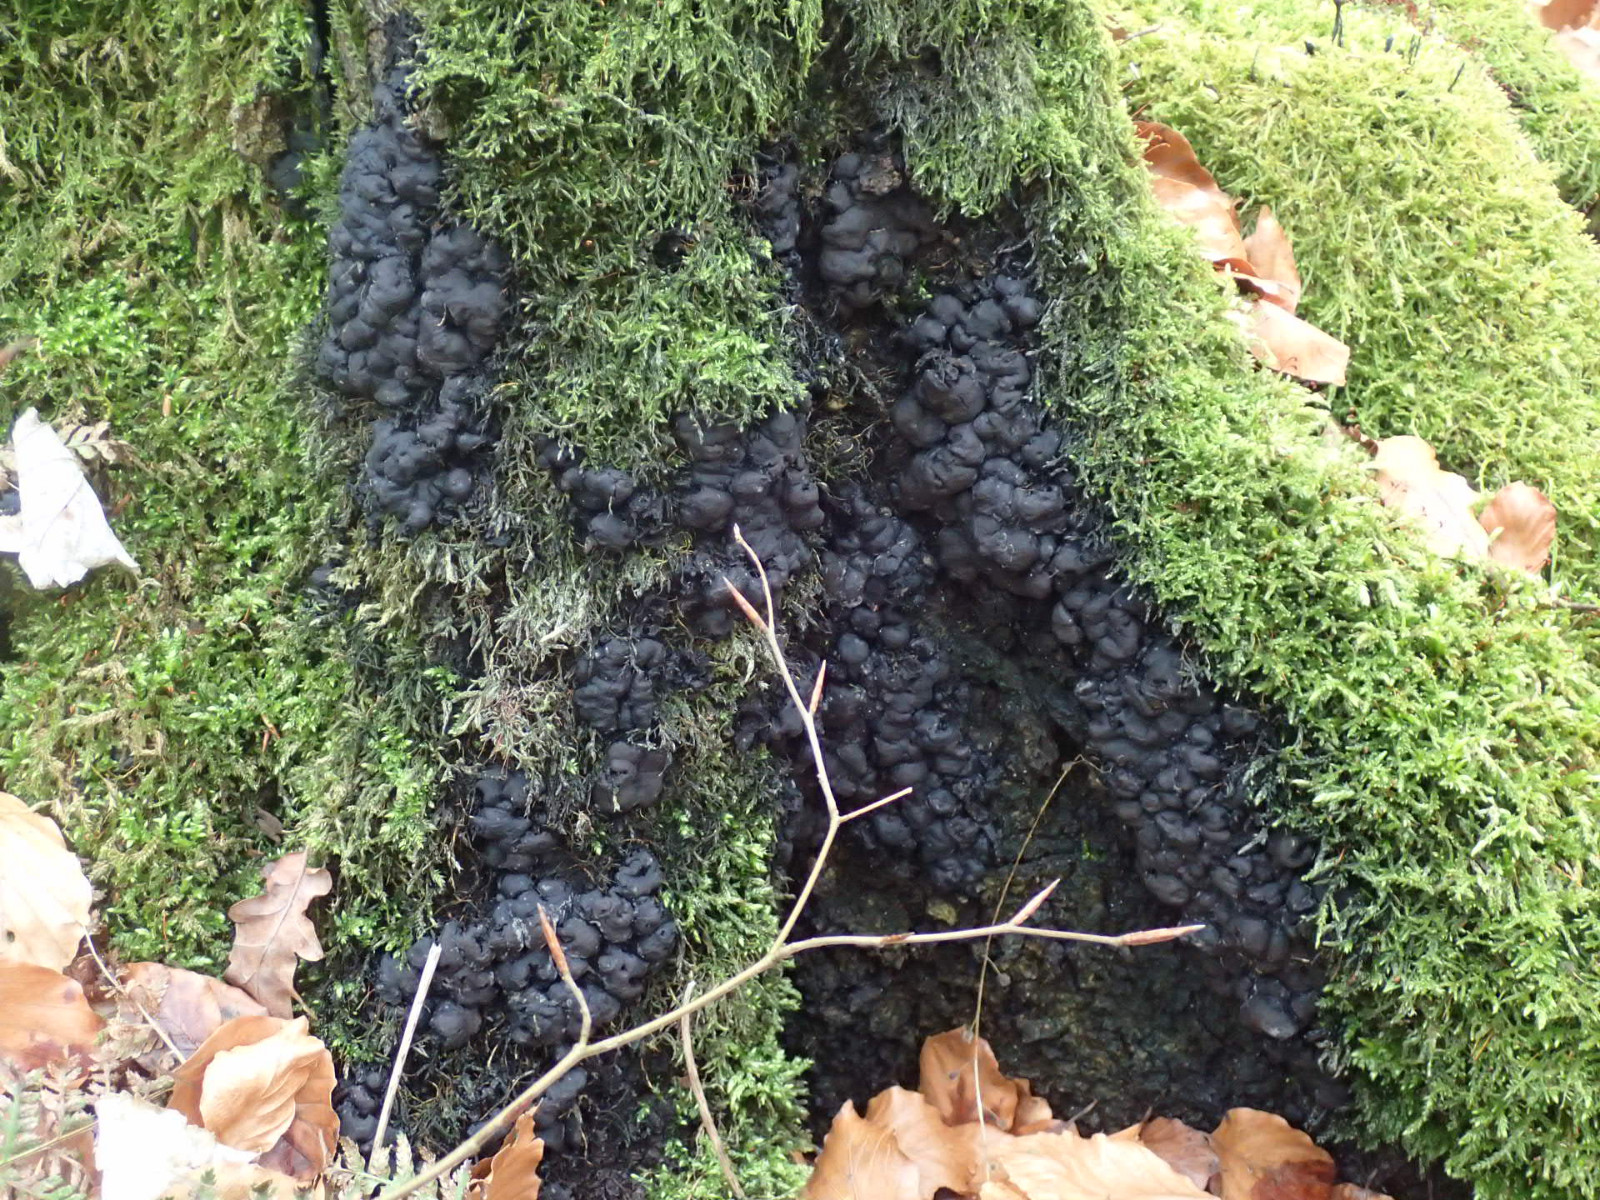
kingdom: Fungi
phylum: Ascomycota
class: Sordariomycetes
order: Xylariales
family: Xylariaceae
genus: Kretzschmaria
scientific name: Kretzschmaria deusta
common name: stor kulsvamp
